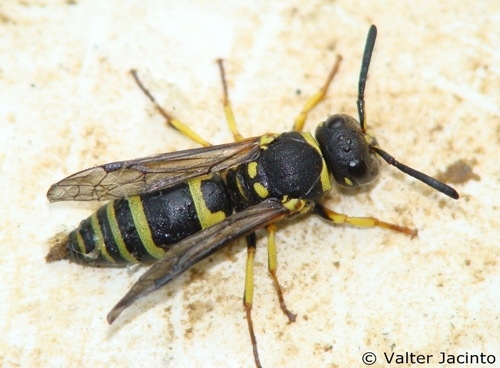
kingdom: Animalia
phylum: Arthropoda
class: Insecta
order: Hymenoptera
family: Vespidae
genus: Ancistrocerus
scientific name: Ancistrocerus renimacula
